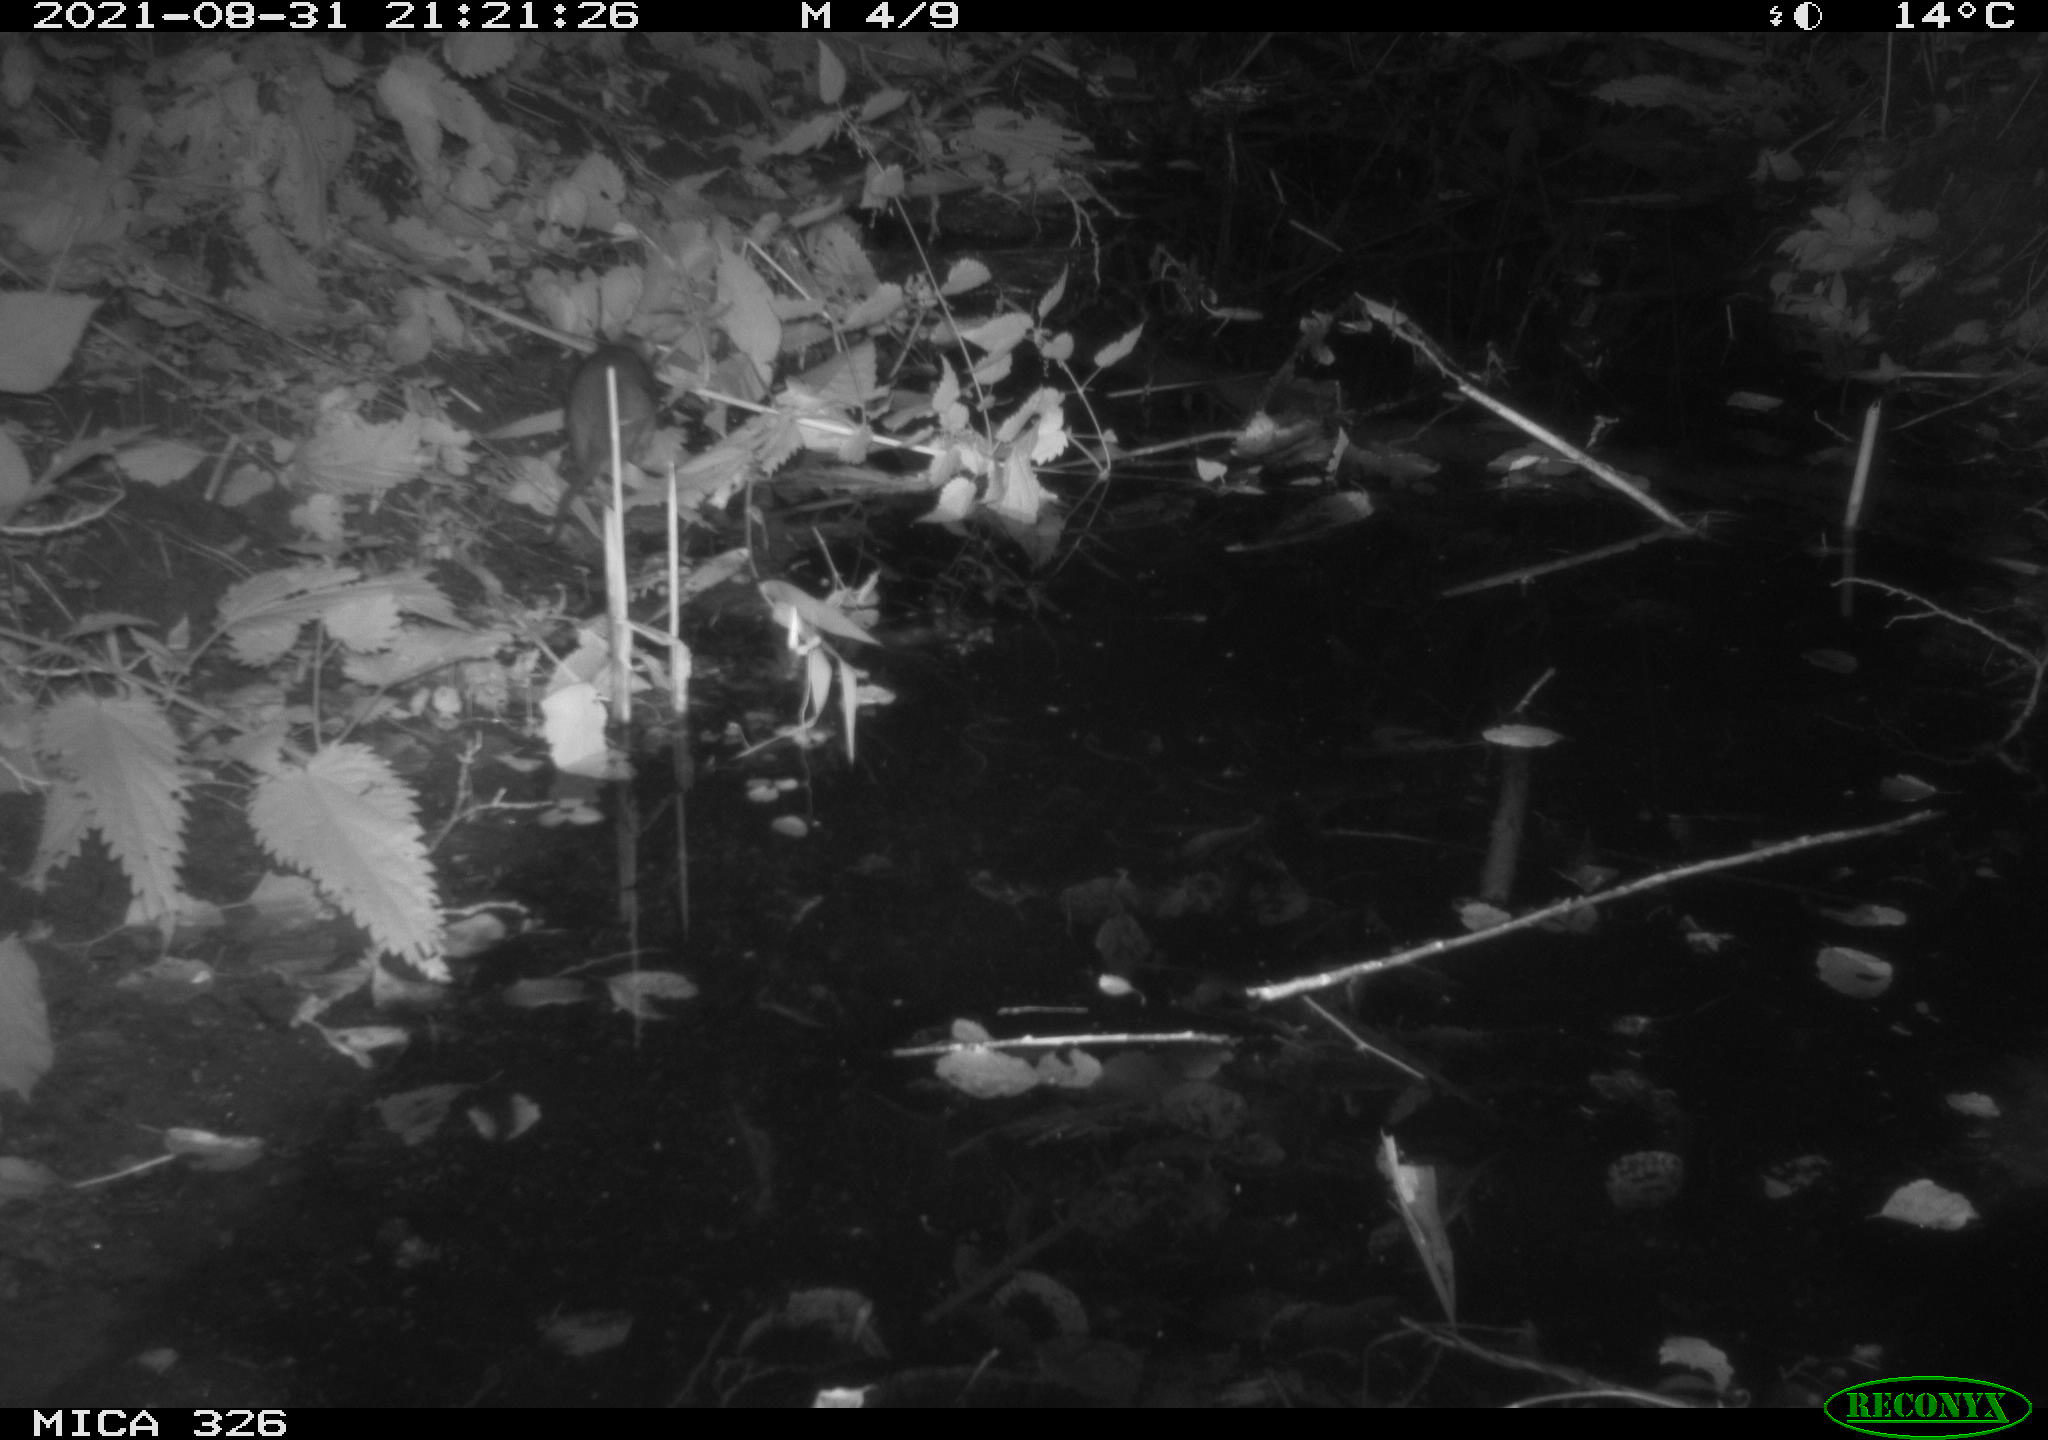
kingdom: Animalia
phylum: Chordata
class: Mammalia
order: Rodentia
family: Muridae
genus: Rattus
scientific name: Rattus norvegicus
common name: Brown rat
